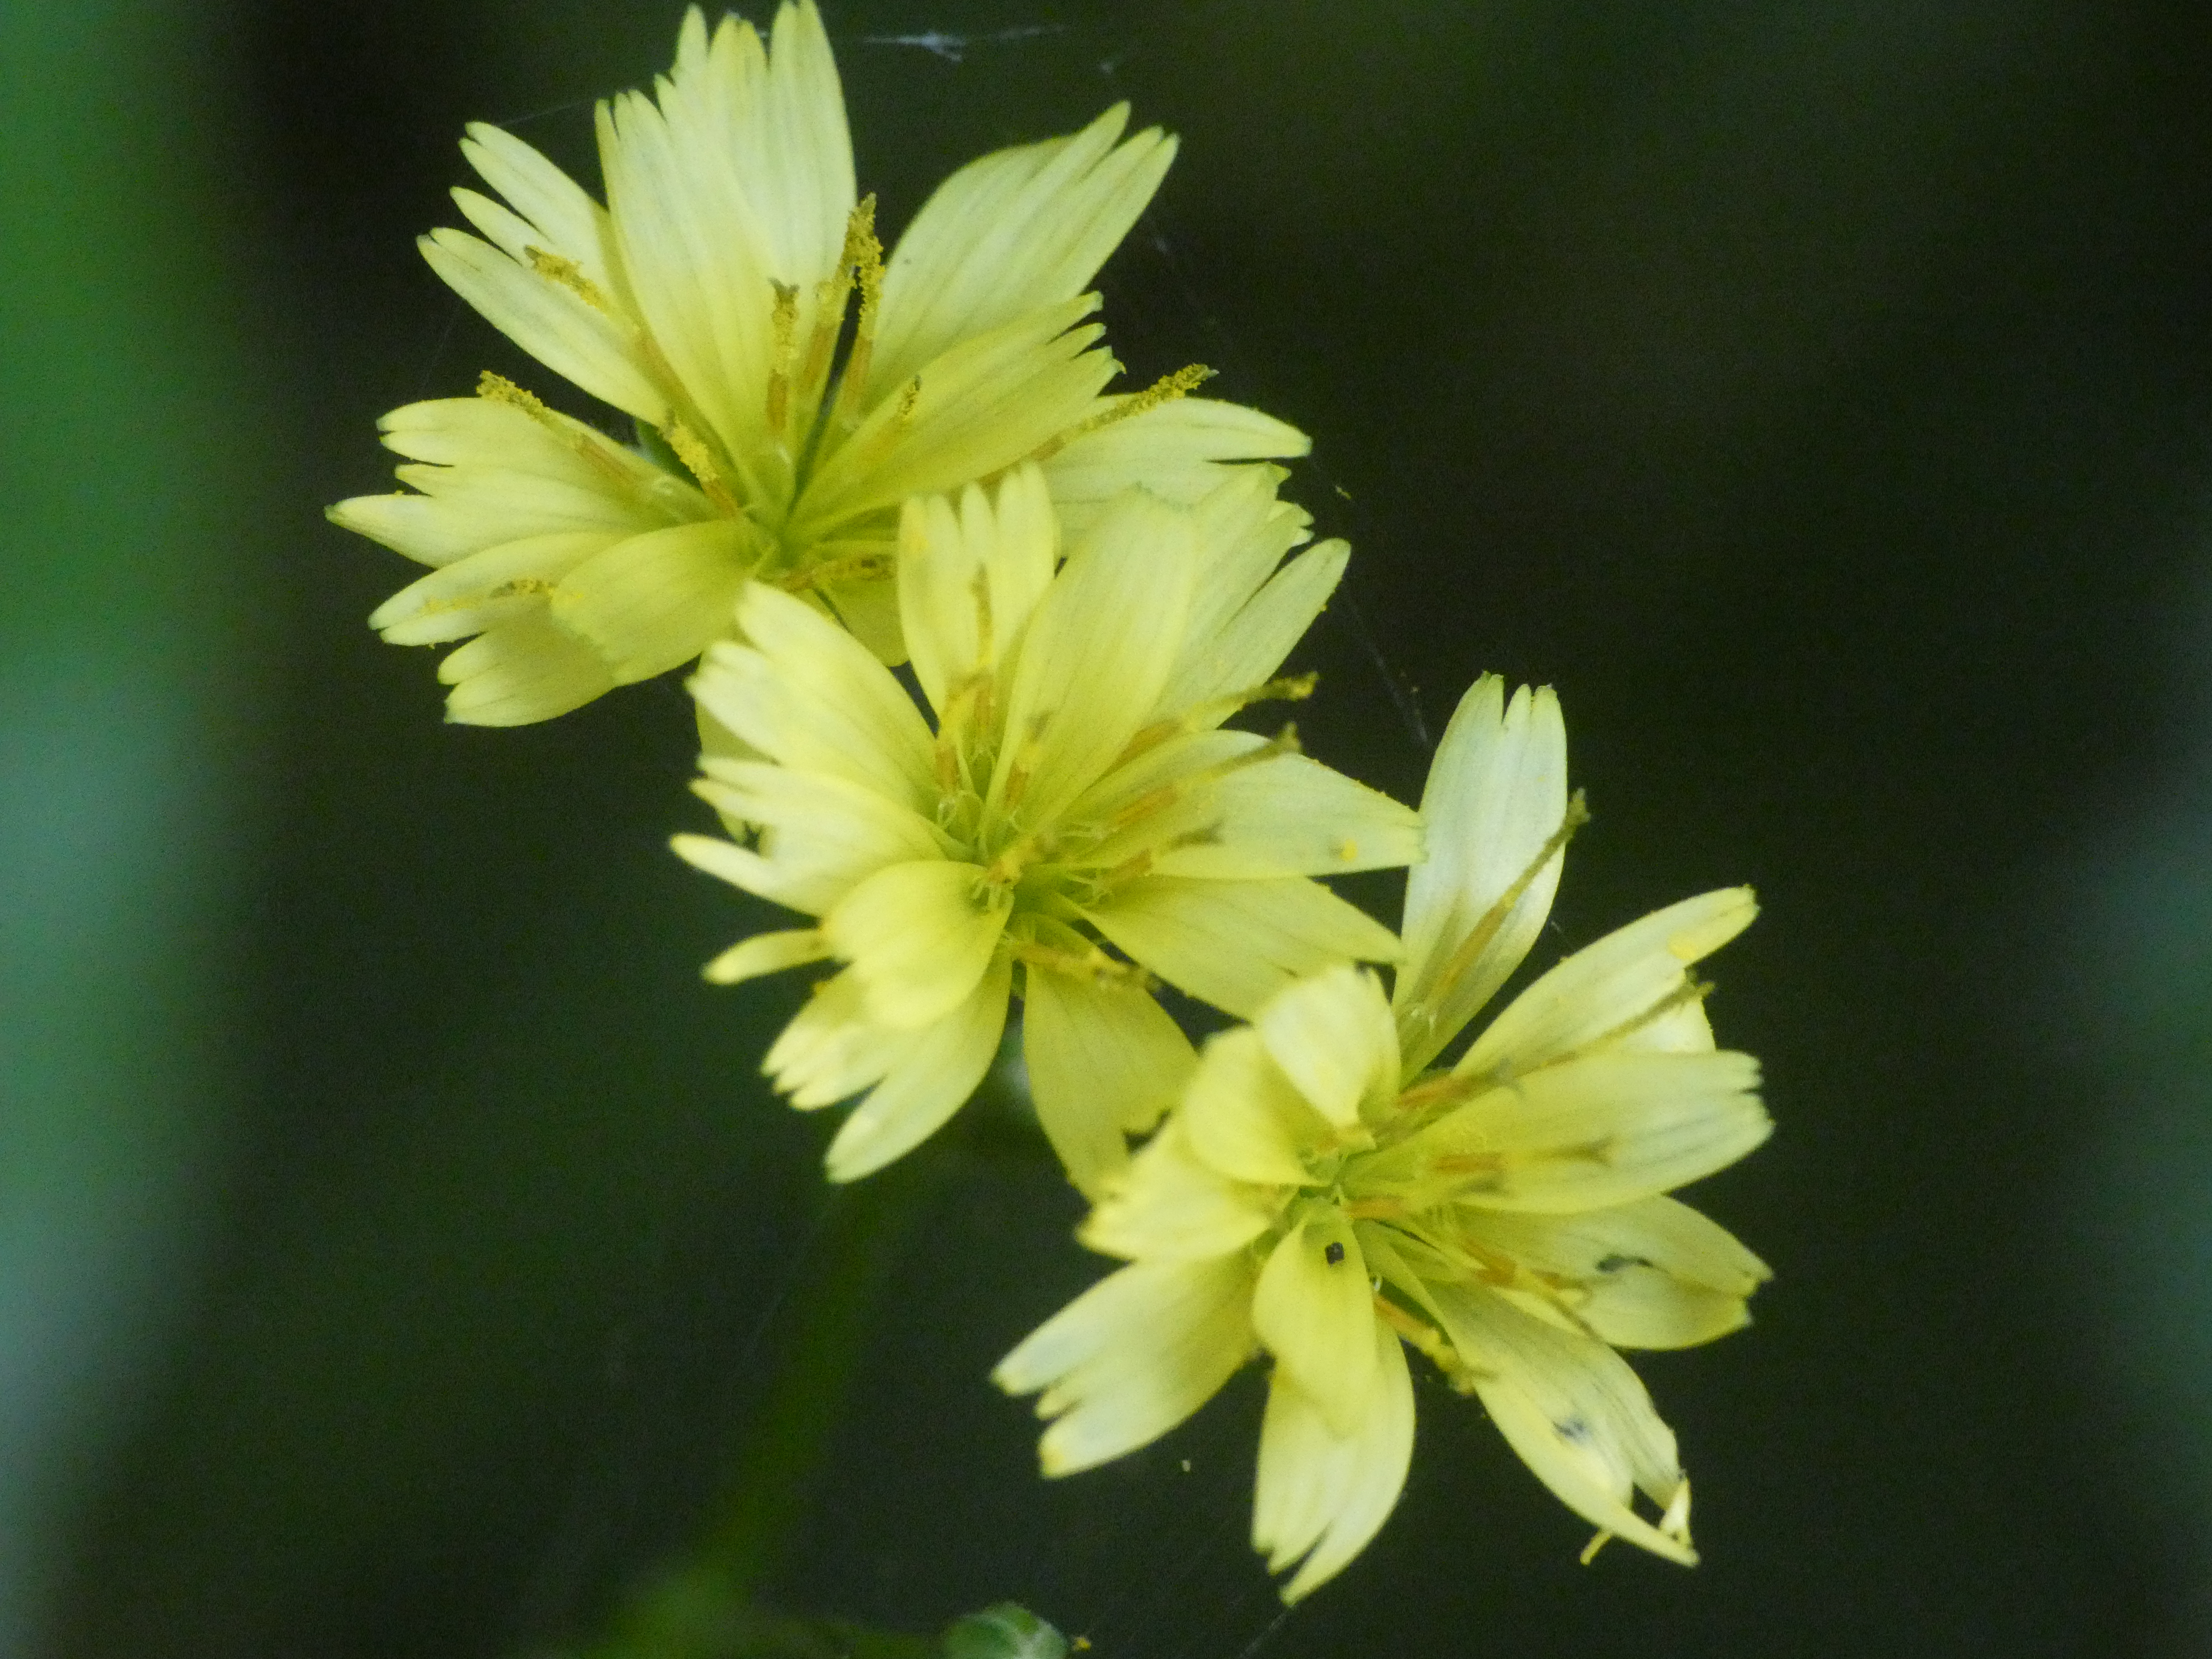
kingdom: Plantae
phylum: Tracheophyta
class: Magnoliopsida
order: Asterales
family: Asteraceae
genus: Lapsana
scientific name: Lapsana communis
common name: Haremad
